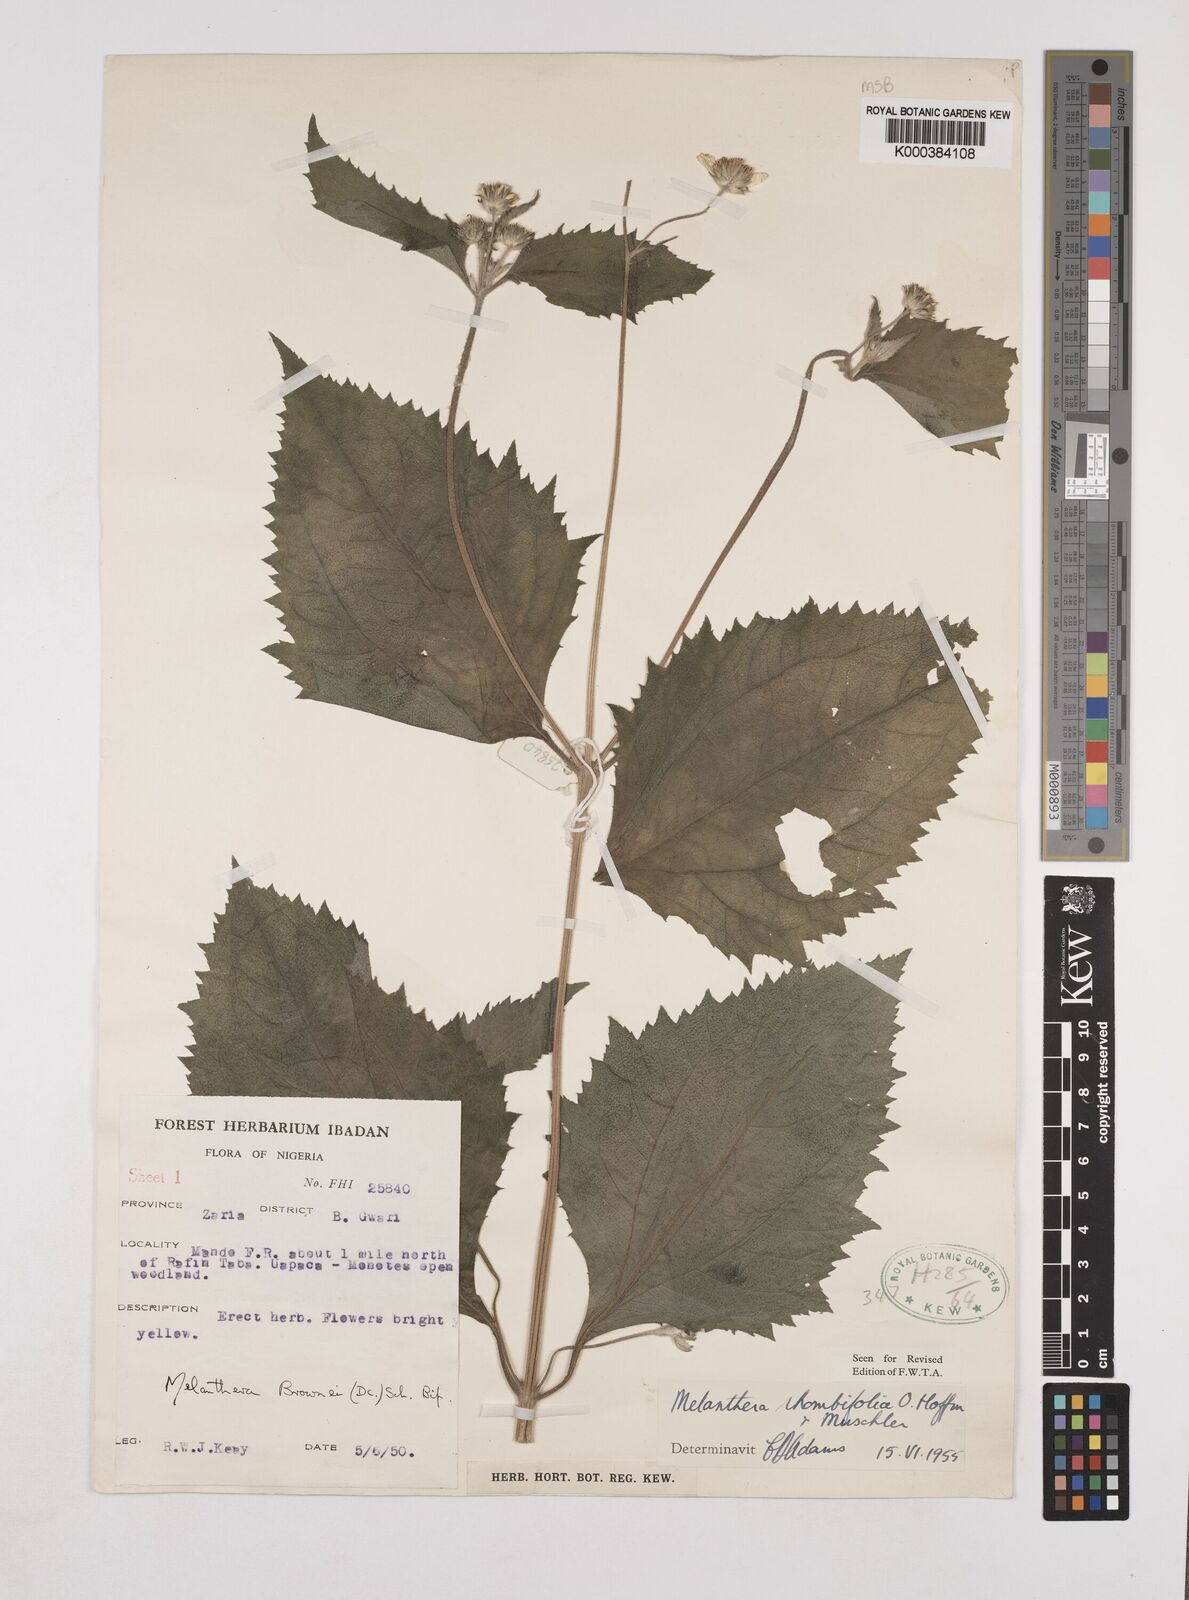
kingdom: Plantae
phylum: Tracheophyta
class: Magnoliopsida
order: Asterales
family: Asteraceae
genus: Lipotriche
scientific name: Lipotriche rhombifolia
